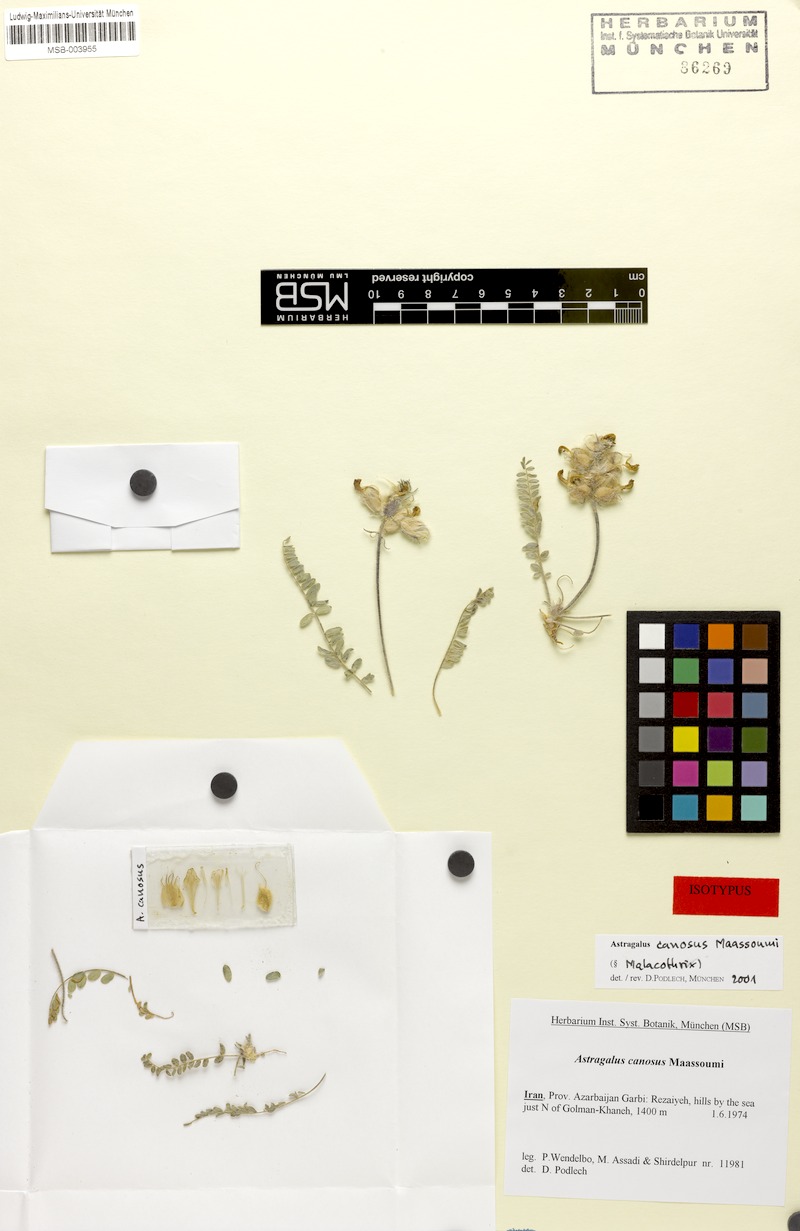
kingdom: Plantae
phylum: Tracheophyta
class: Magnoliopsida
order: Fabales
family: Fabaceae
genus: Astragalus
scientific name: Astragalus canosus
